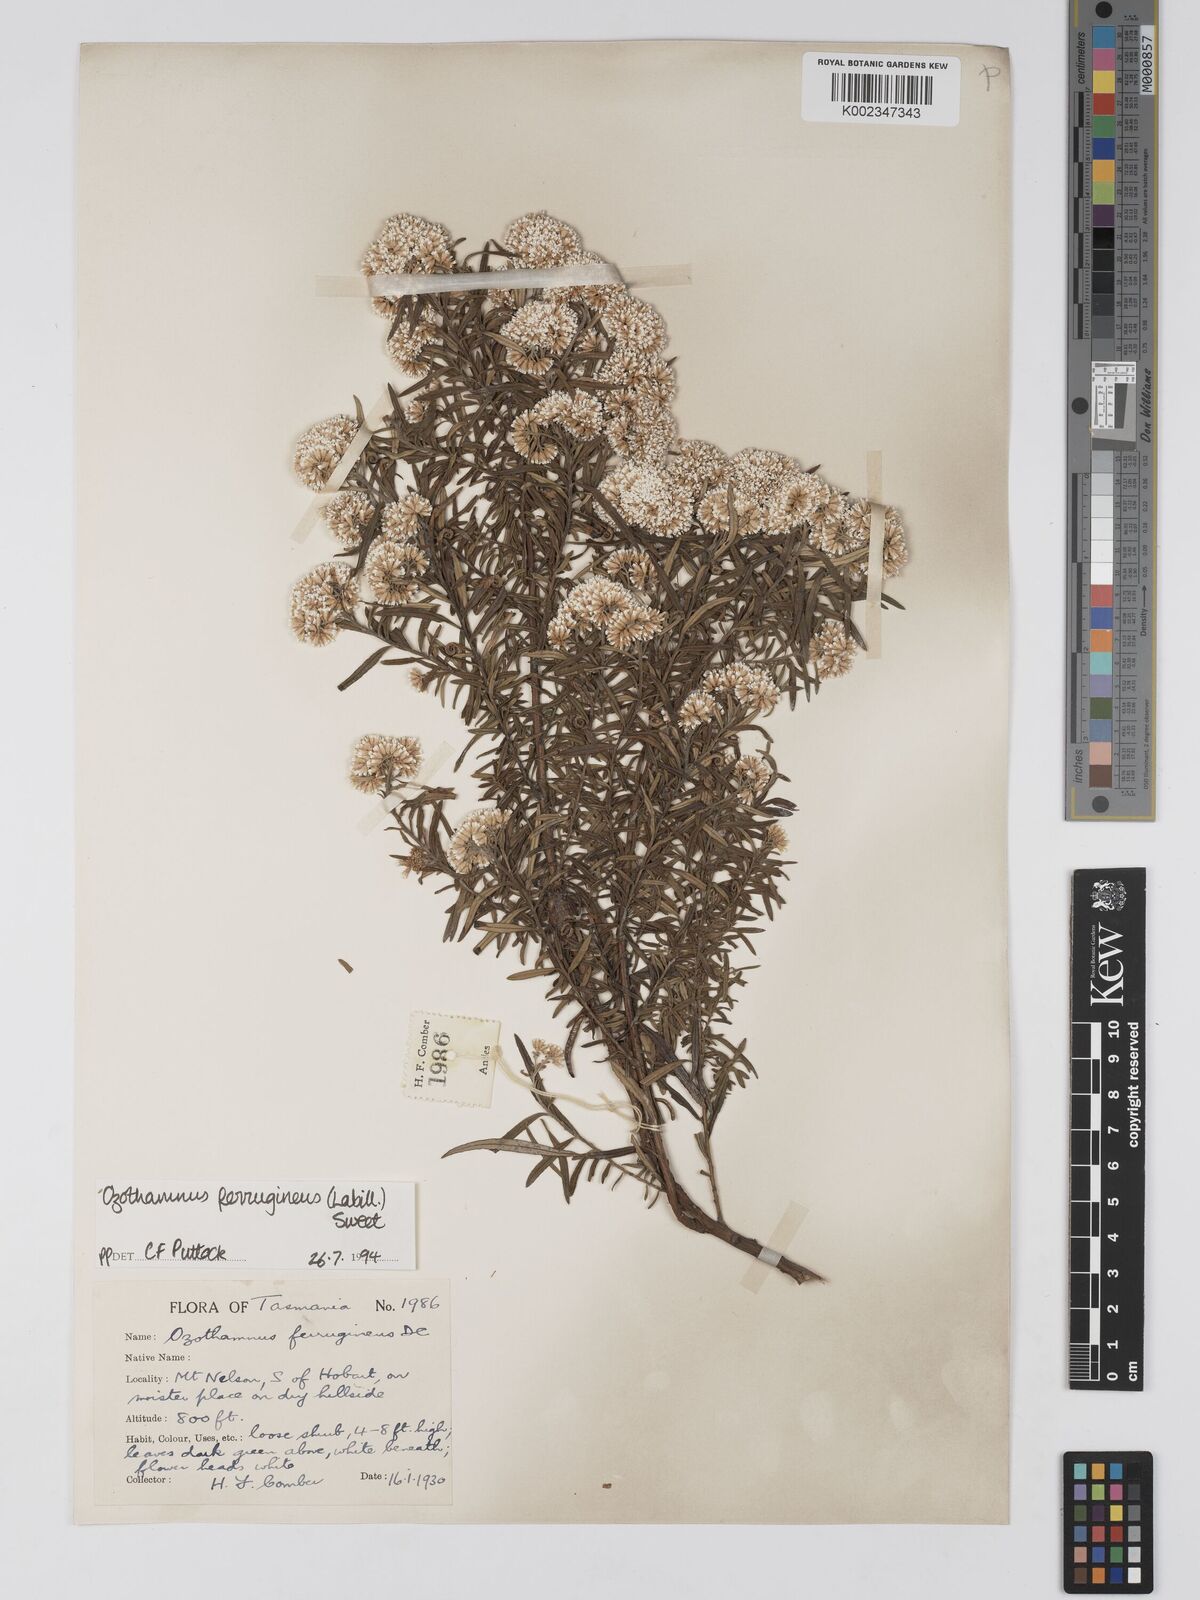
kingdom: Plantae
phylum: Tracheophyta
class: Magnoliopsida
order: Asterales
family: Asteraceae
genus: Ozothamnus
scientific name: Ozothamnus ferrugineus
